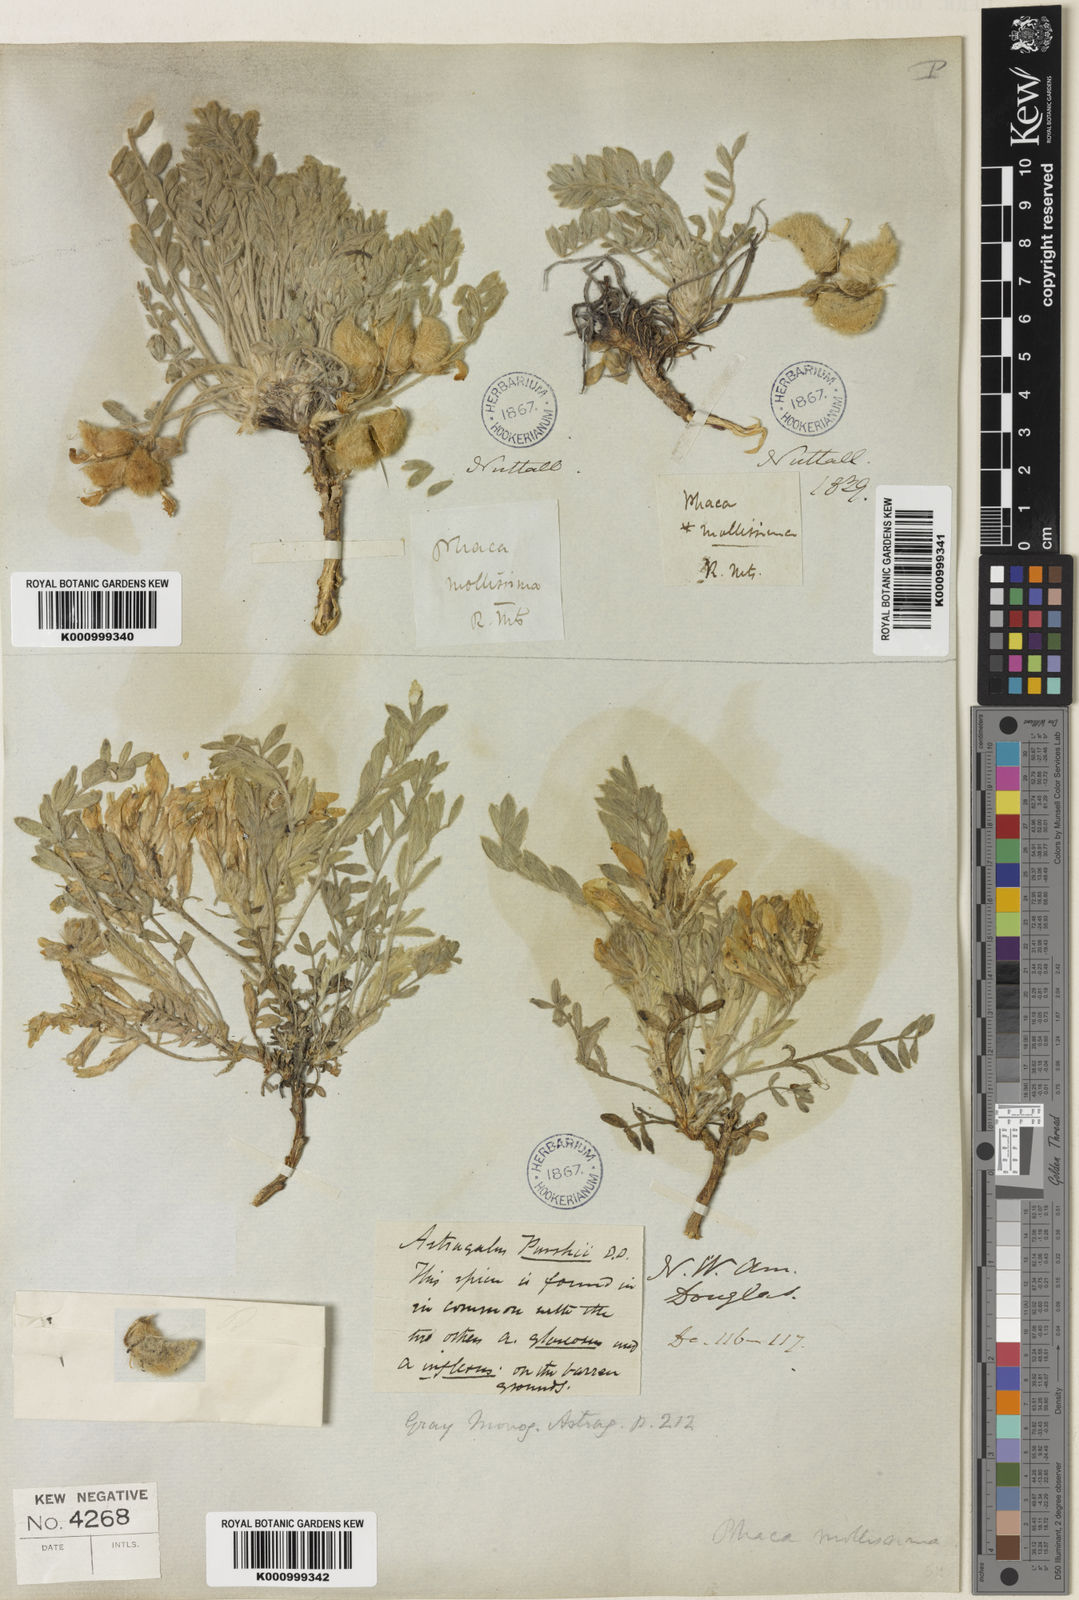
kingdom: Plantae
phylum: Tracheophyta
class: Magnoliopsida
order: Fabales
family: Fabaceae
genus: Astragalus
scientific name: Astragalus
